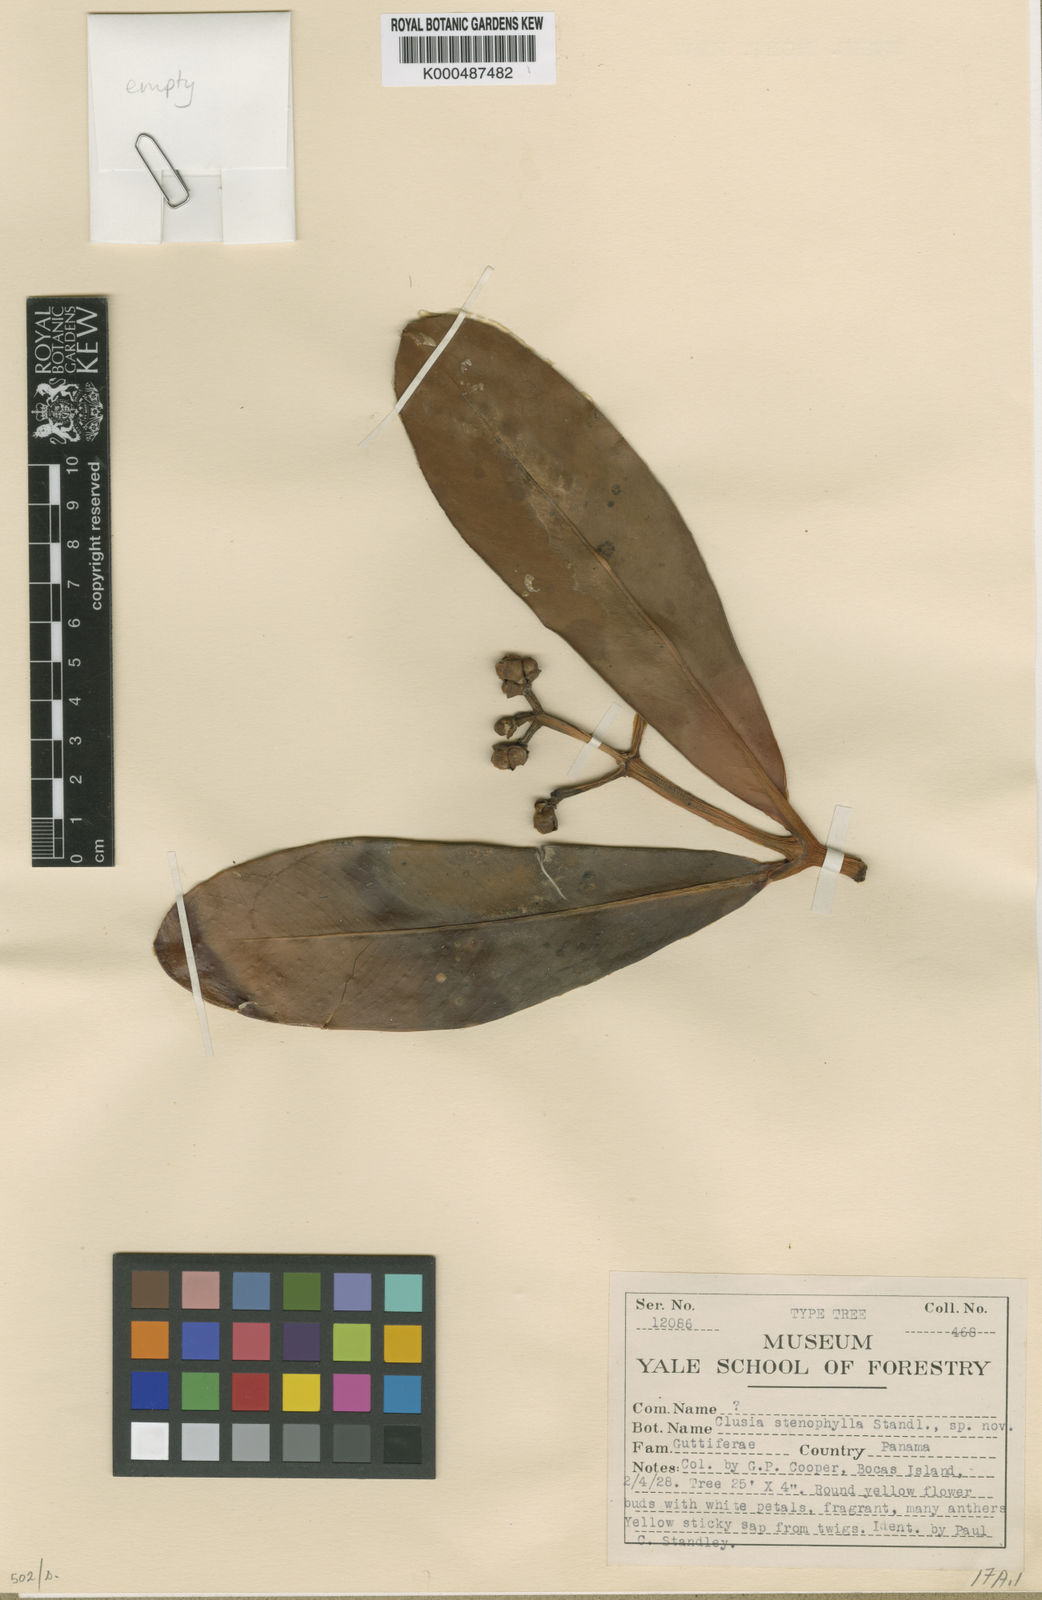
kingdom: Plantae
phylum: Tracheophyta
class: Magnoliopsida
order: Malpighiales
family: Clusiaceae
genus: Clusia
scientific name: Clusia stenophylla
